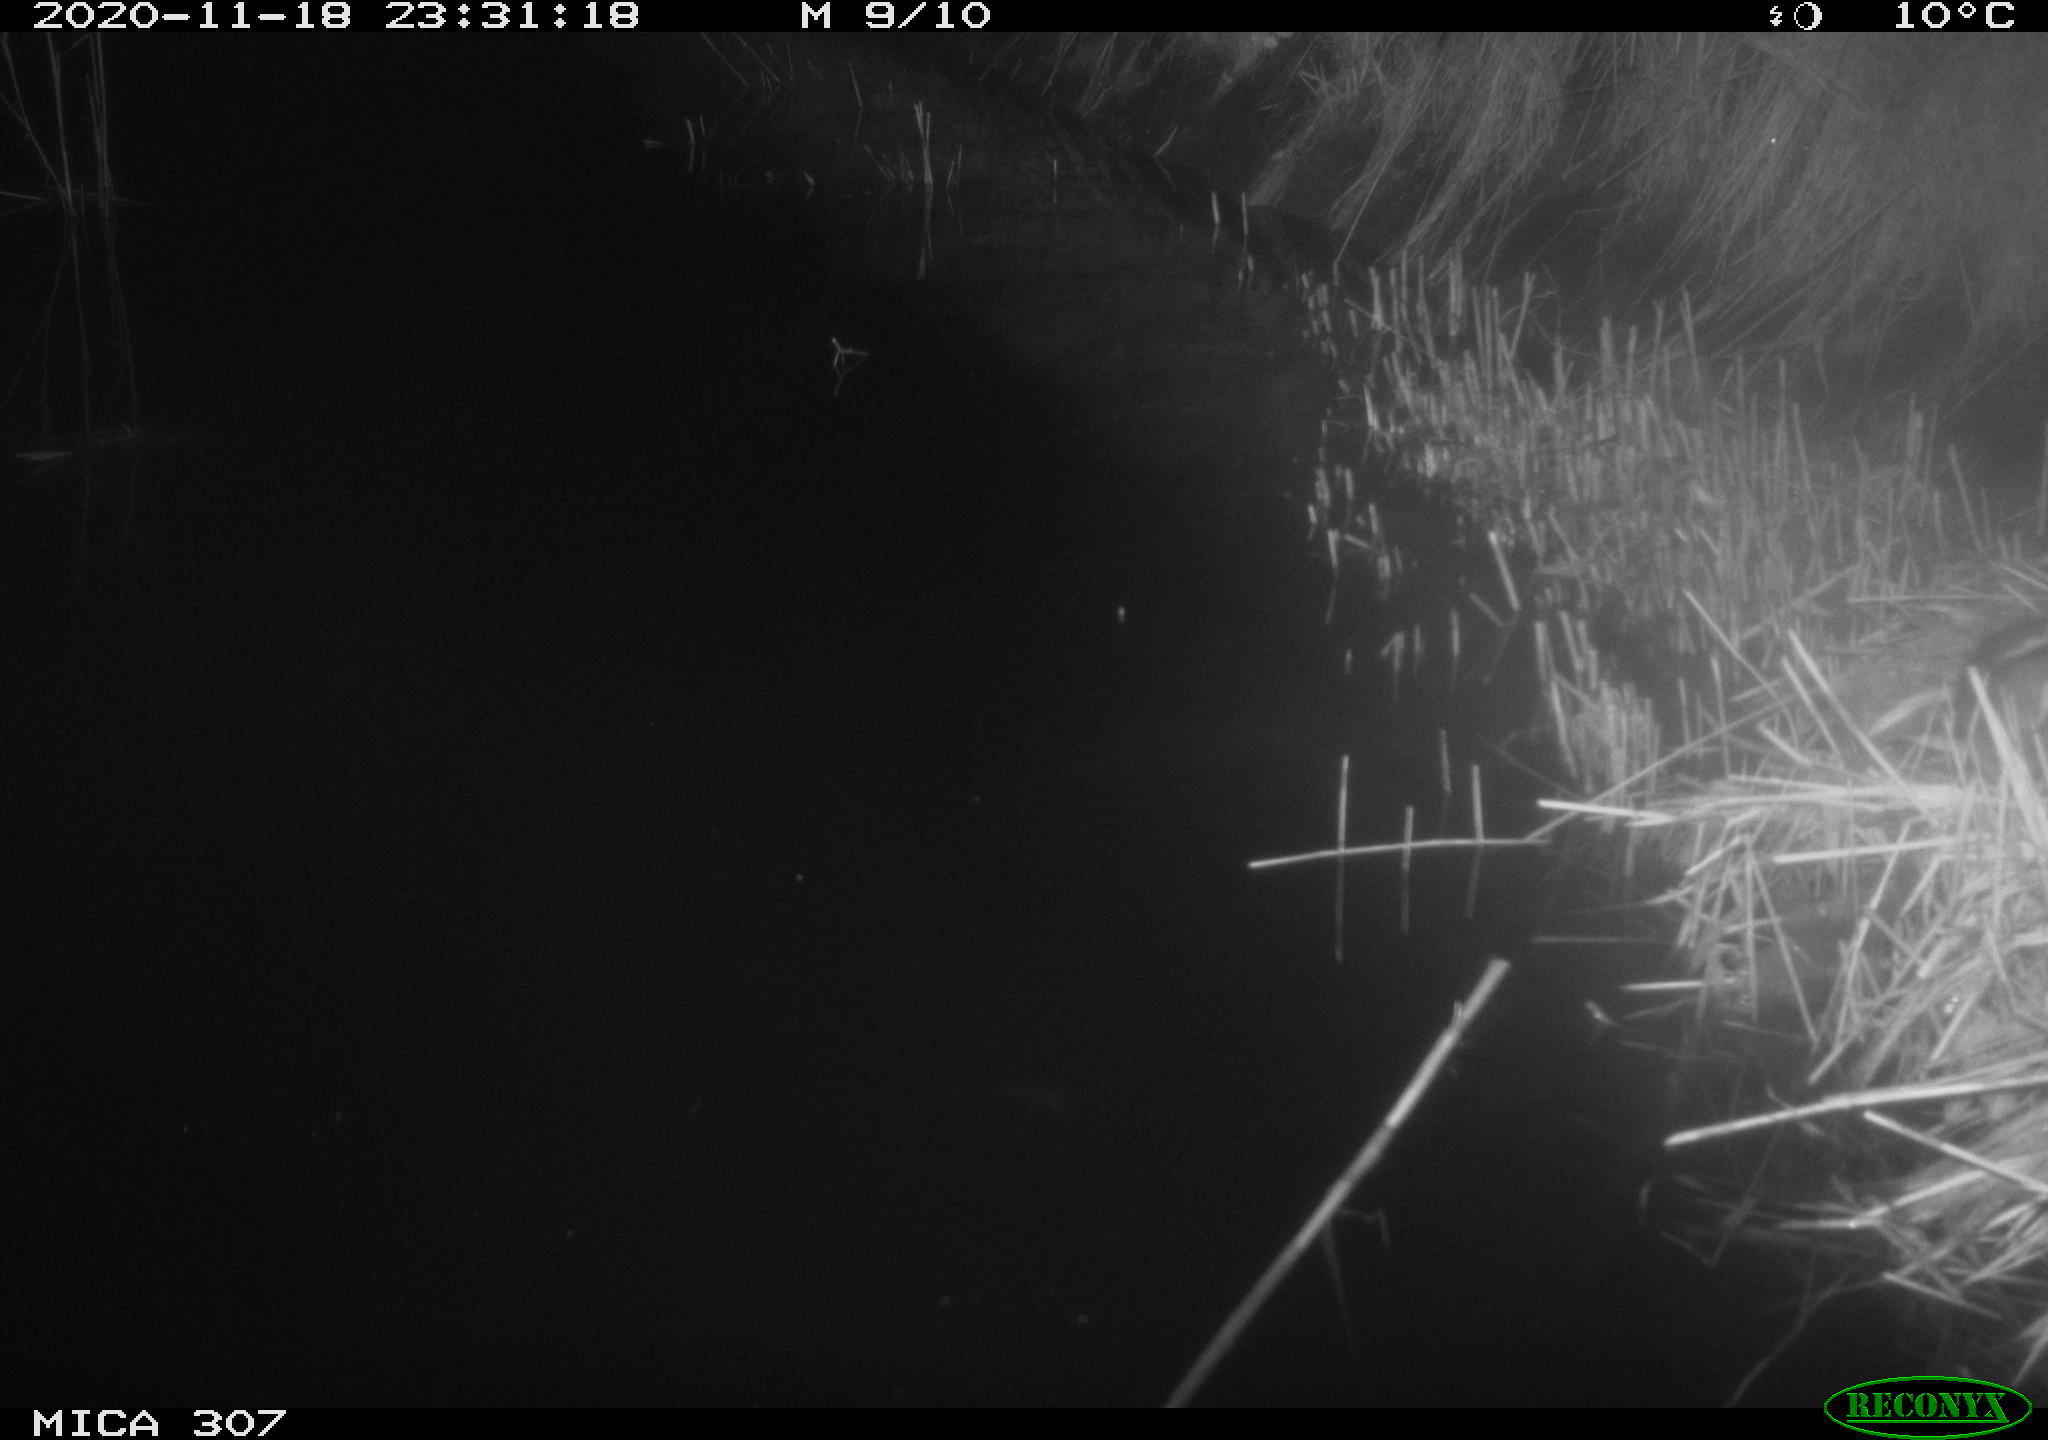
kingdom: Animalia
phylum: Chordata
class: Mammalia
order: Rodentia
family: Muridae
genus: Rattus
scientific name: Rattus norvegicus
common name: Brown rat
